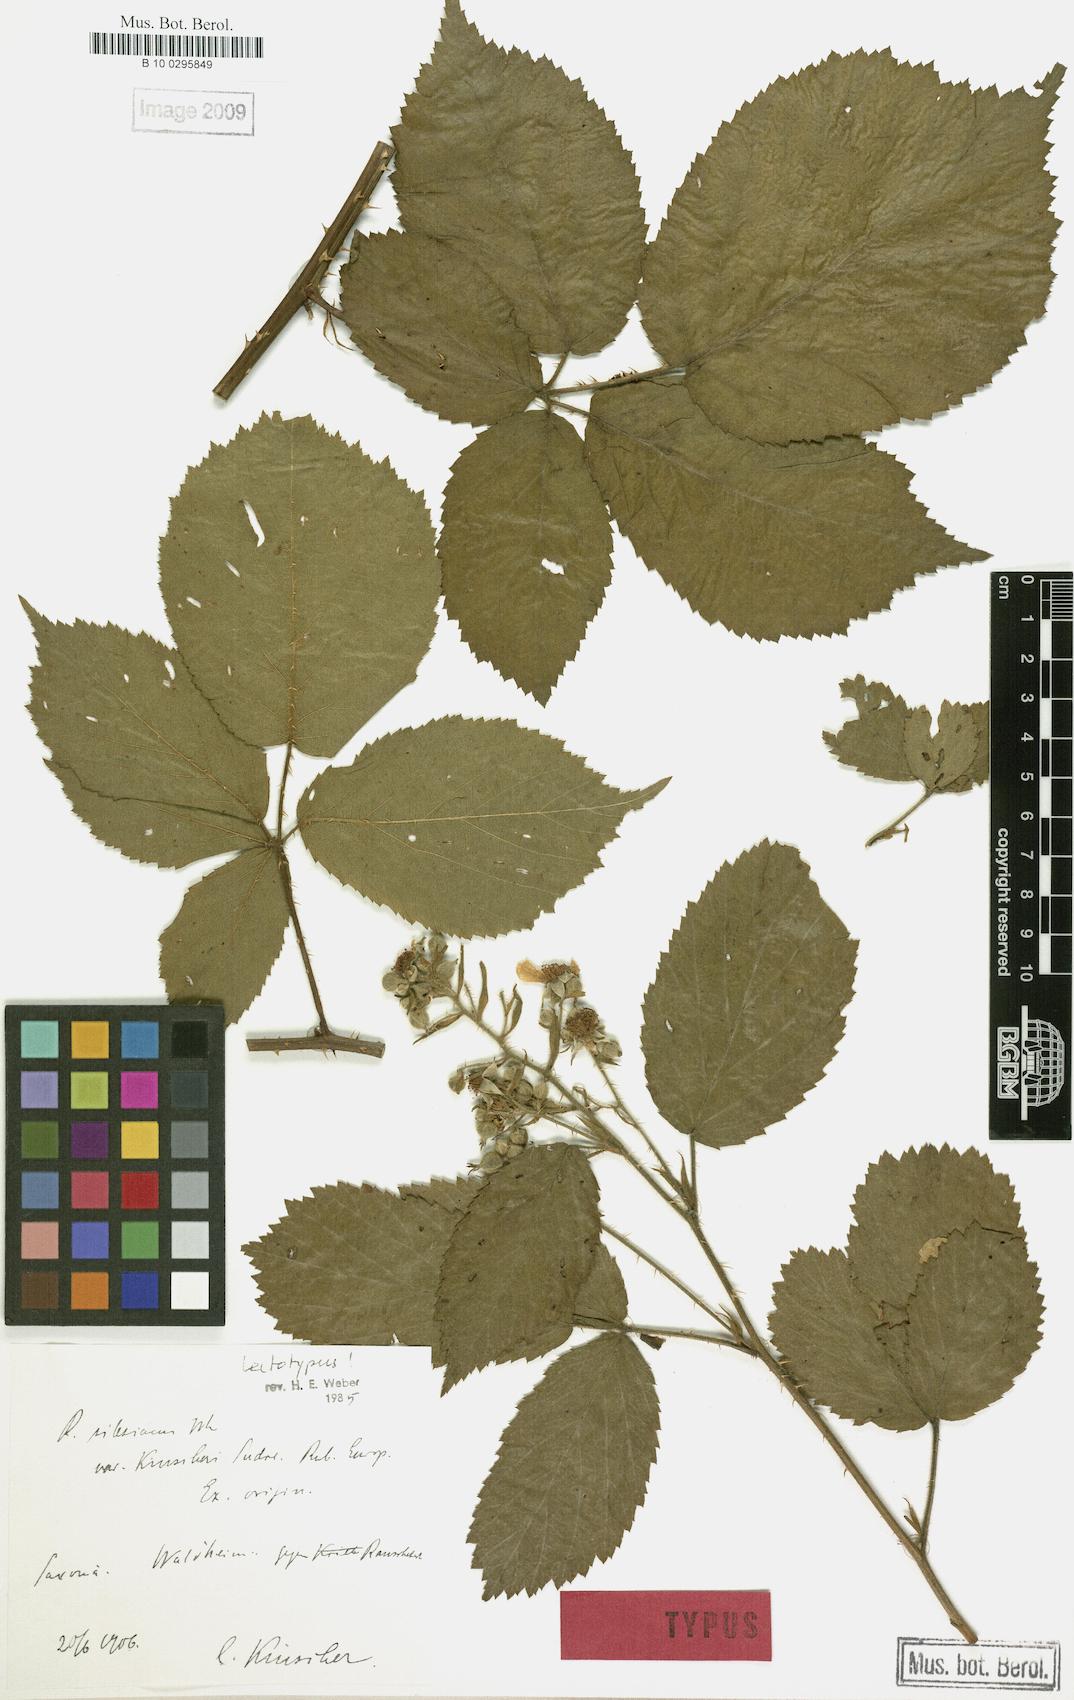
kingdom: Plantae
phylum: Tracheophyta
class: Magnoliopsida
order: Rosales
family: Rosaceae
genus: Rubus
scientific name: Rubus geminatus
